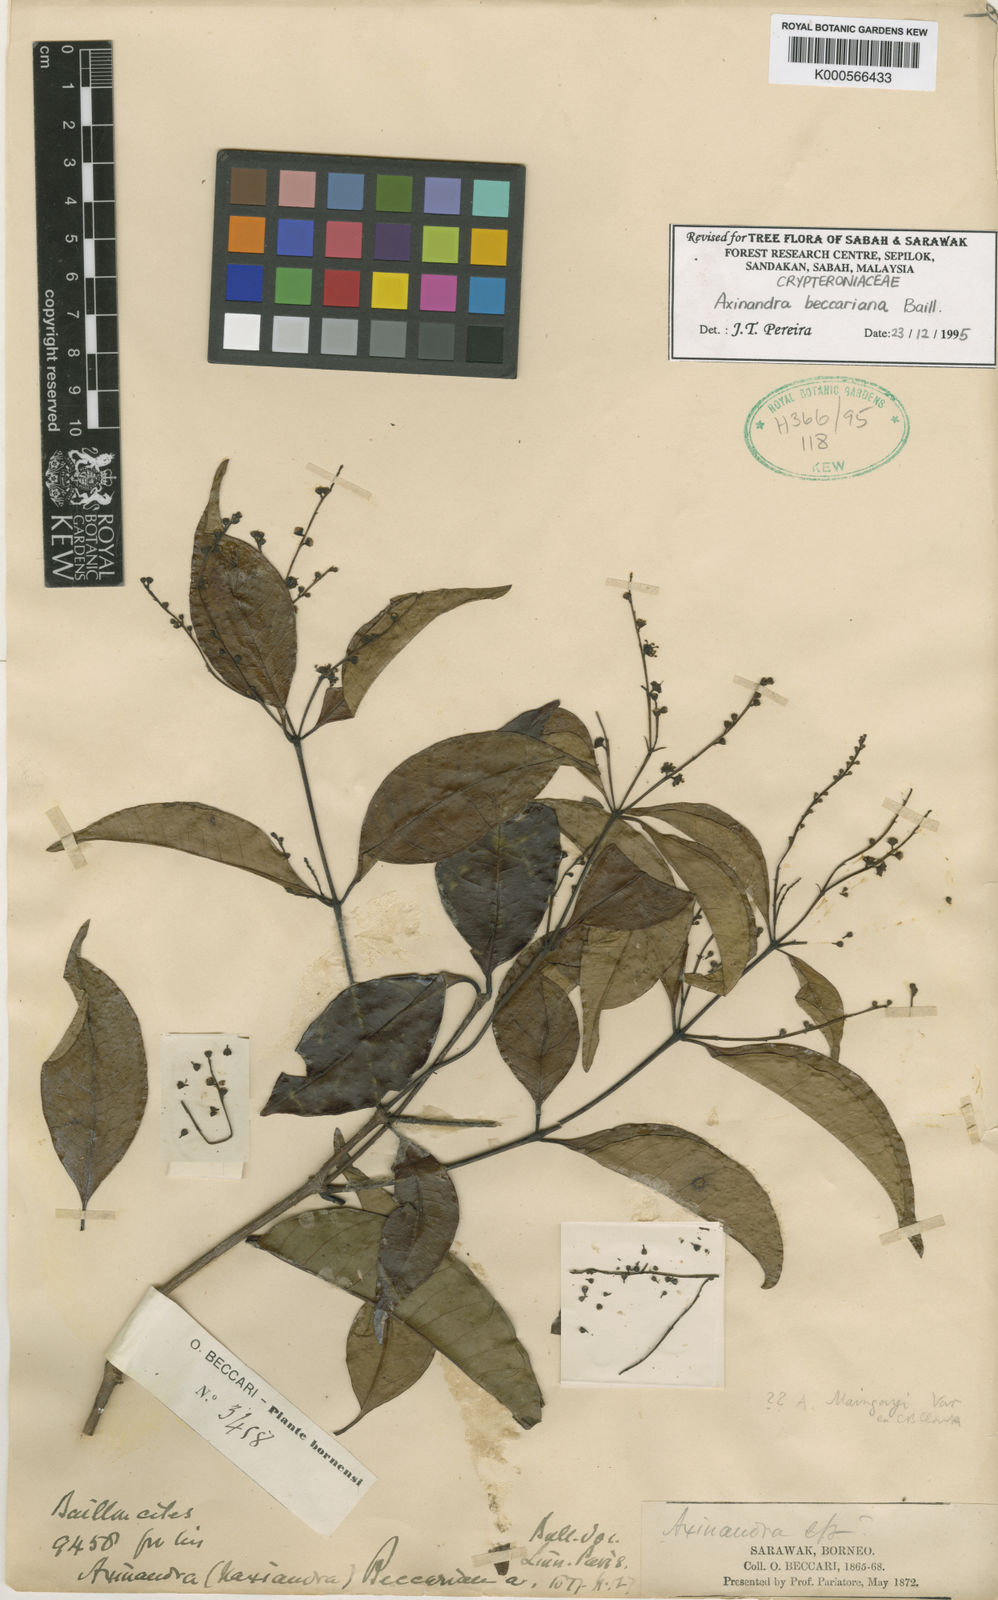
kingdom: Plantae
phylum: Tracheophyta
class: Magnoliopsida
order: Myrtales
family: Crypteroniaceae
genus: Axinandra
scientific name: Axinandra beccariana
